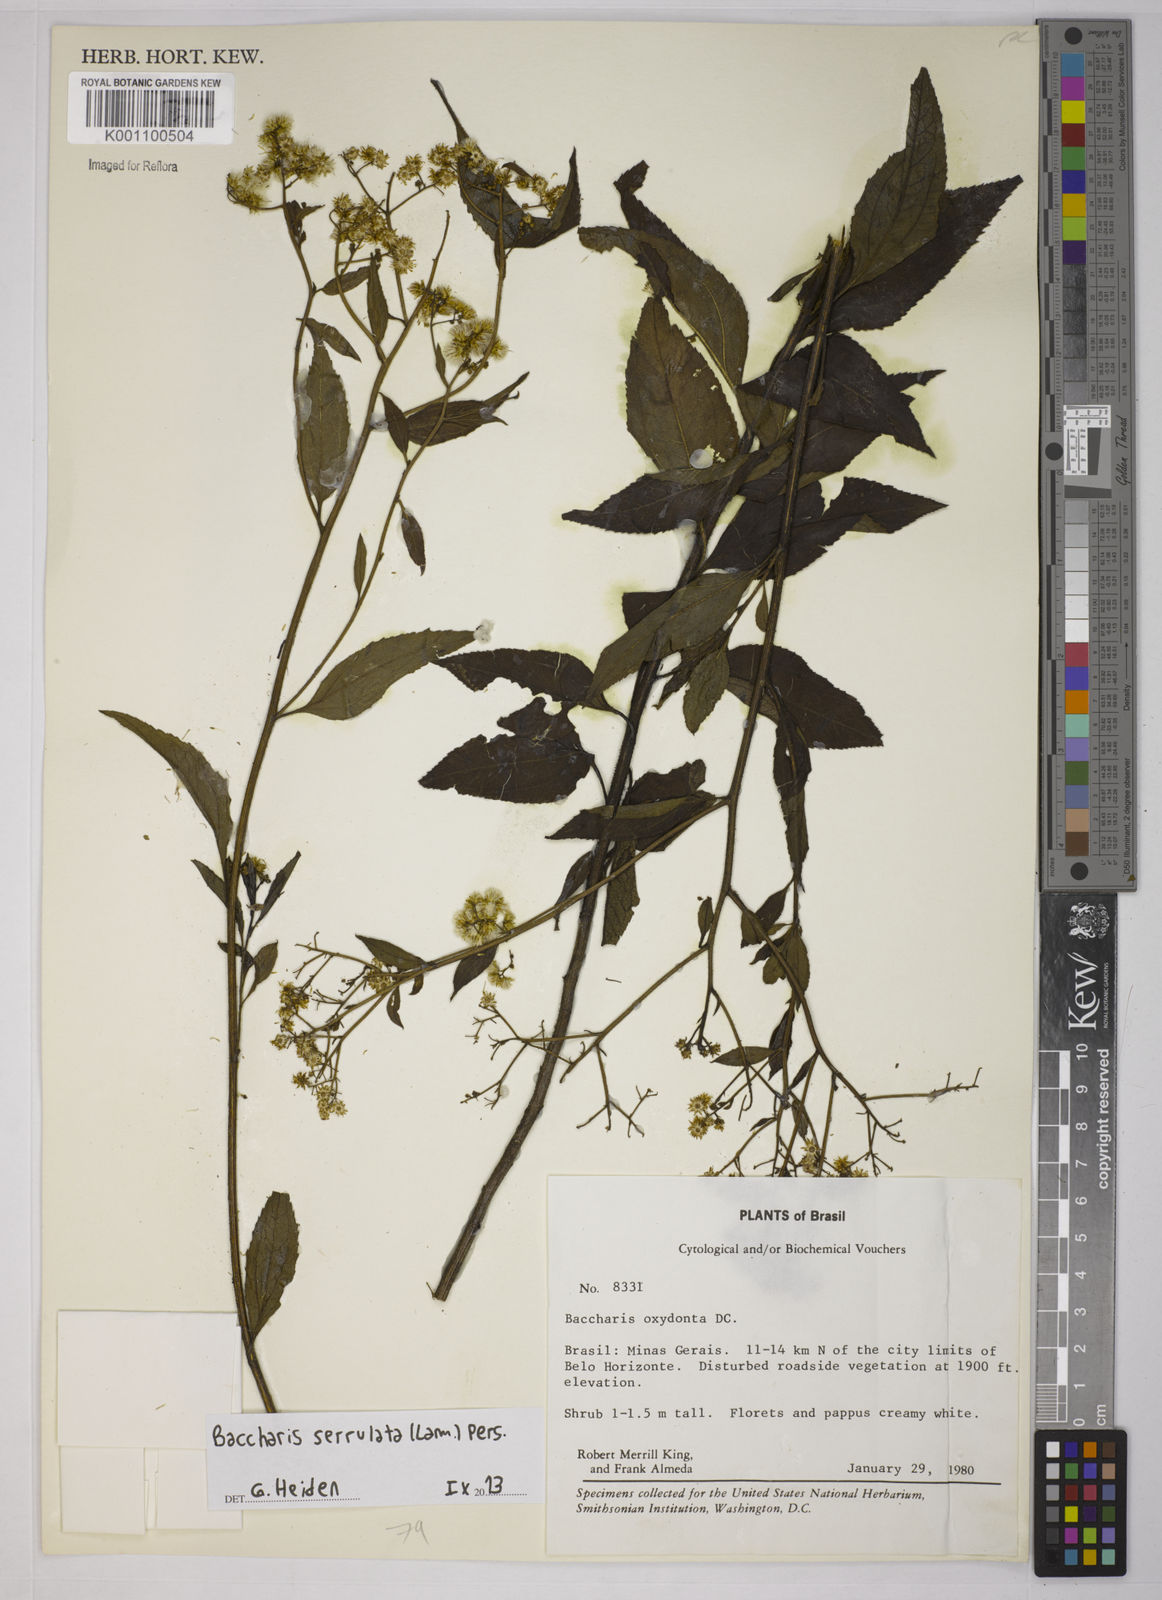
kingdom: Plantae
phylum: Tracheophyta
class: Magnoliopsida
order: Asterales
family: Asteraceae
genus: Baccharis
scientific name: Baccharis serrulata
